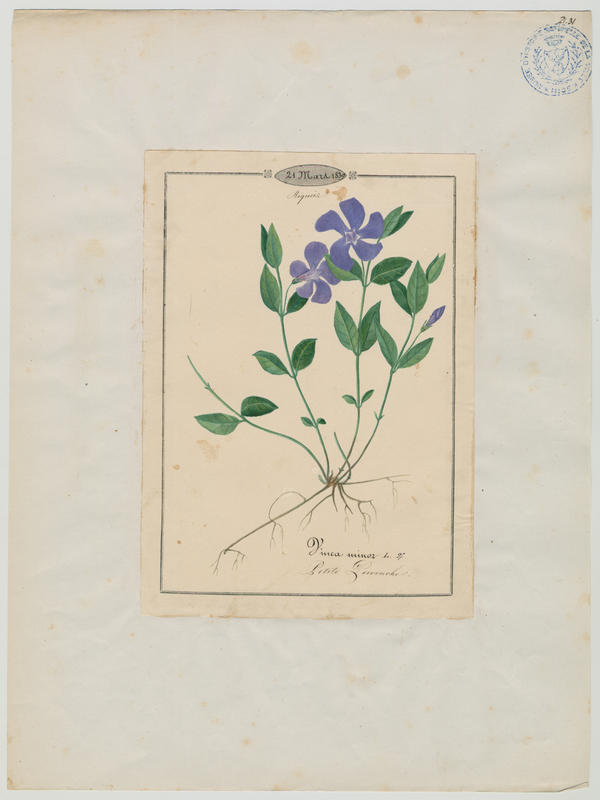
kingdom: Plantae
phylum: Tracheophyta
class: Magnoliopsida
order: Gentianales
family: Apocynaceae
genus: Vinca
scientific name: Vinca minor
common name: Lesser periwinkle
